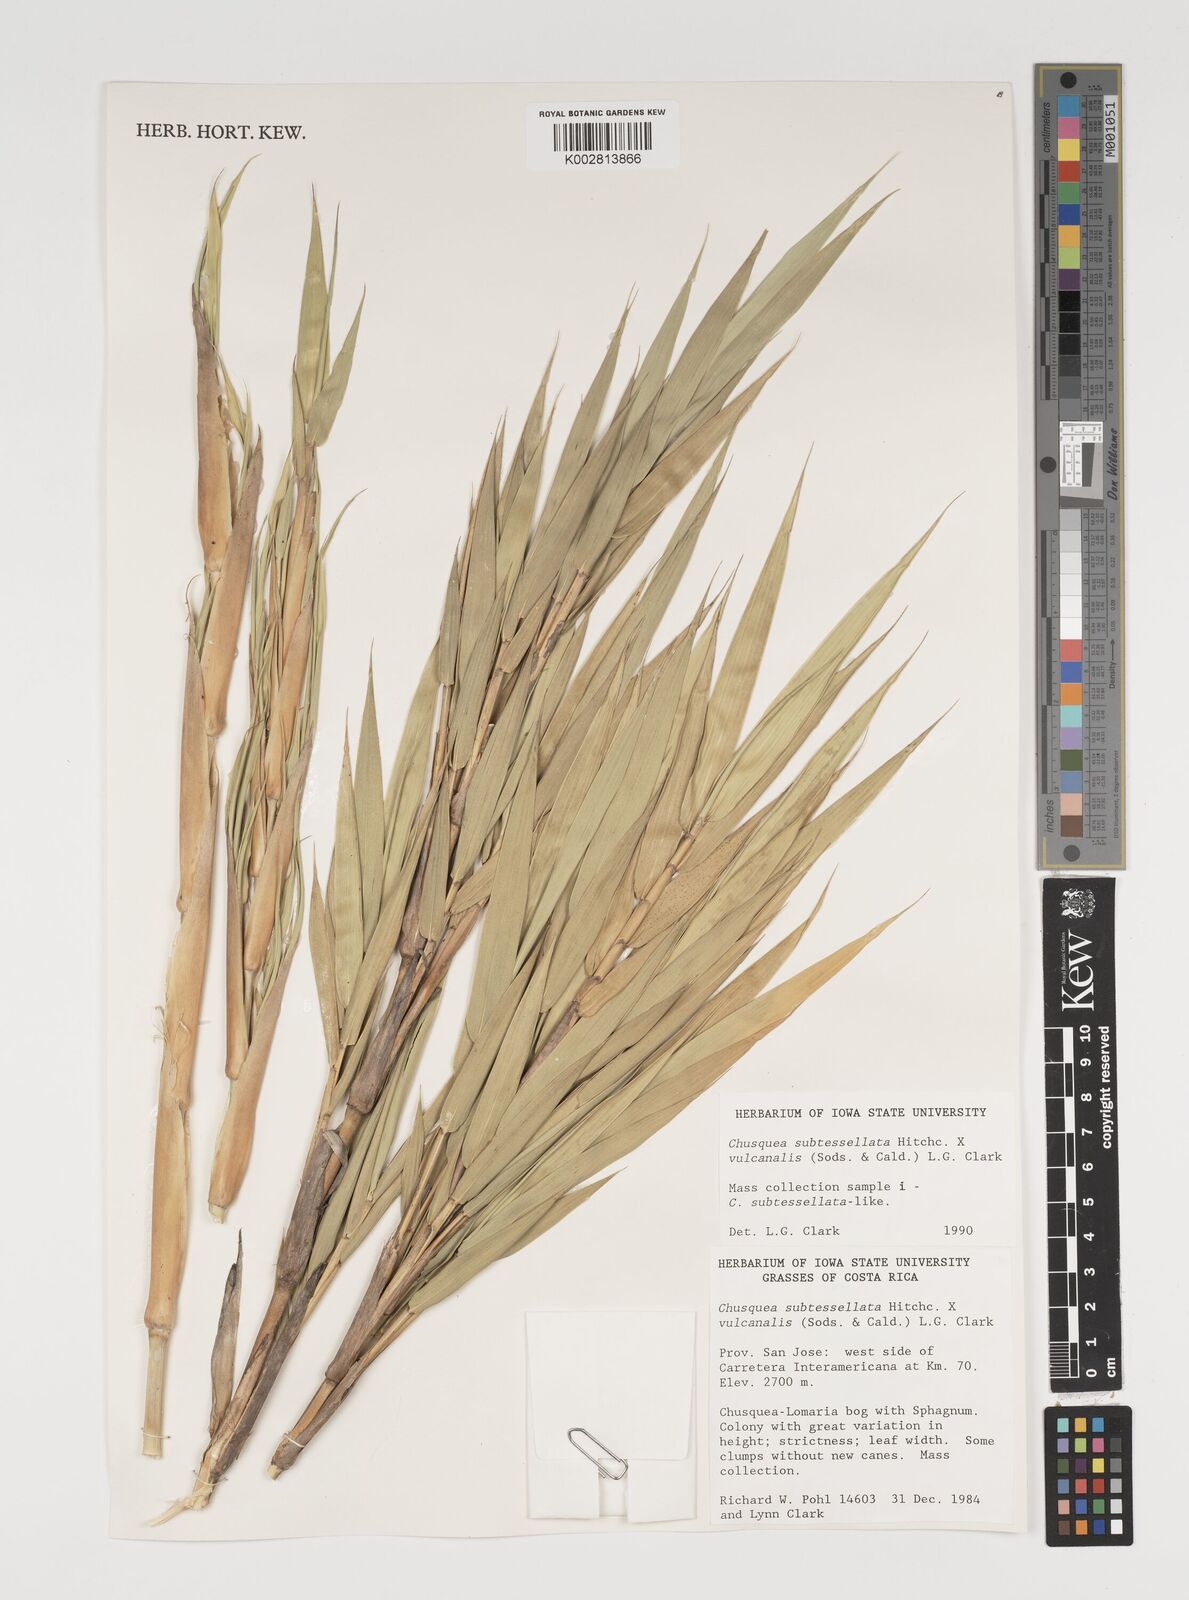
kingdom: Plantae
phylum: Tracheophyta
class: Liliopsida
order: Poales
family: Poaceae
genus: Chusquea
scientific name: Chusquea subtessellata
